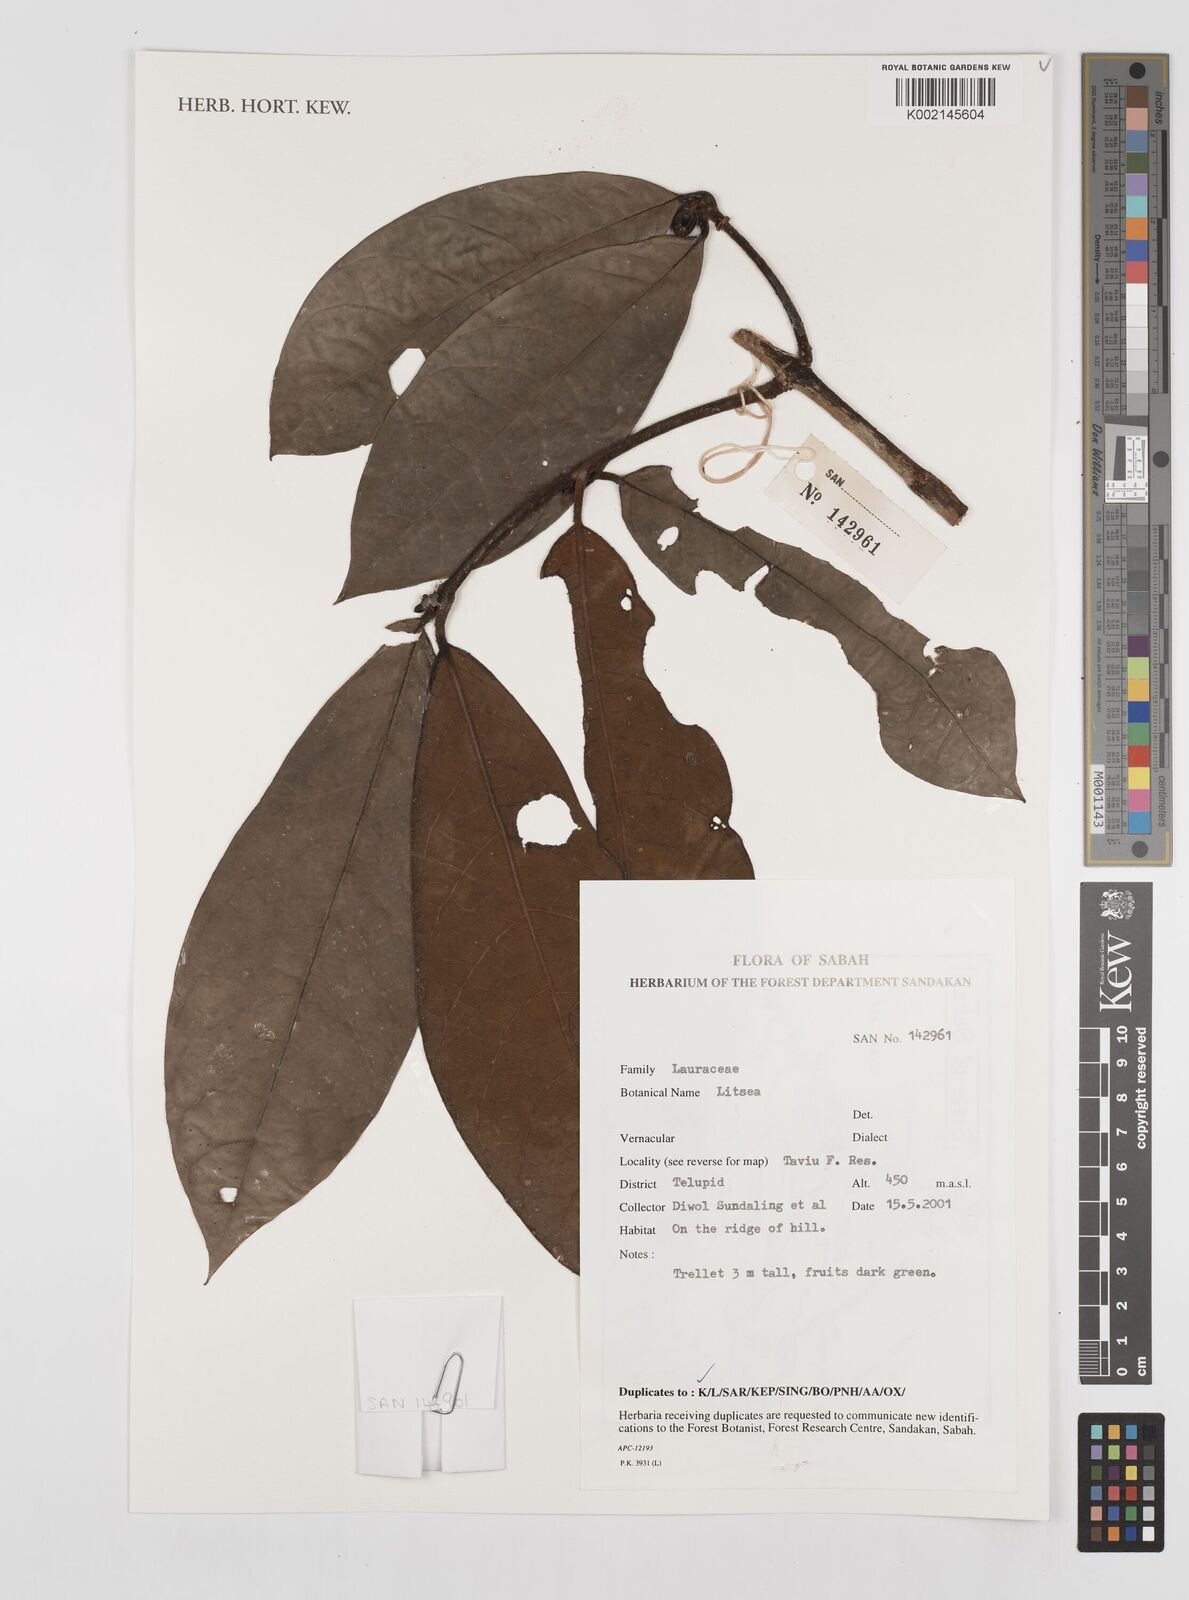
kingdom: Plantae
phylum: Tracheophyta
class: Magnoliopsida
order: Laurales
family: Lauraceae
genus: Litsea
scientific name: Litsea
